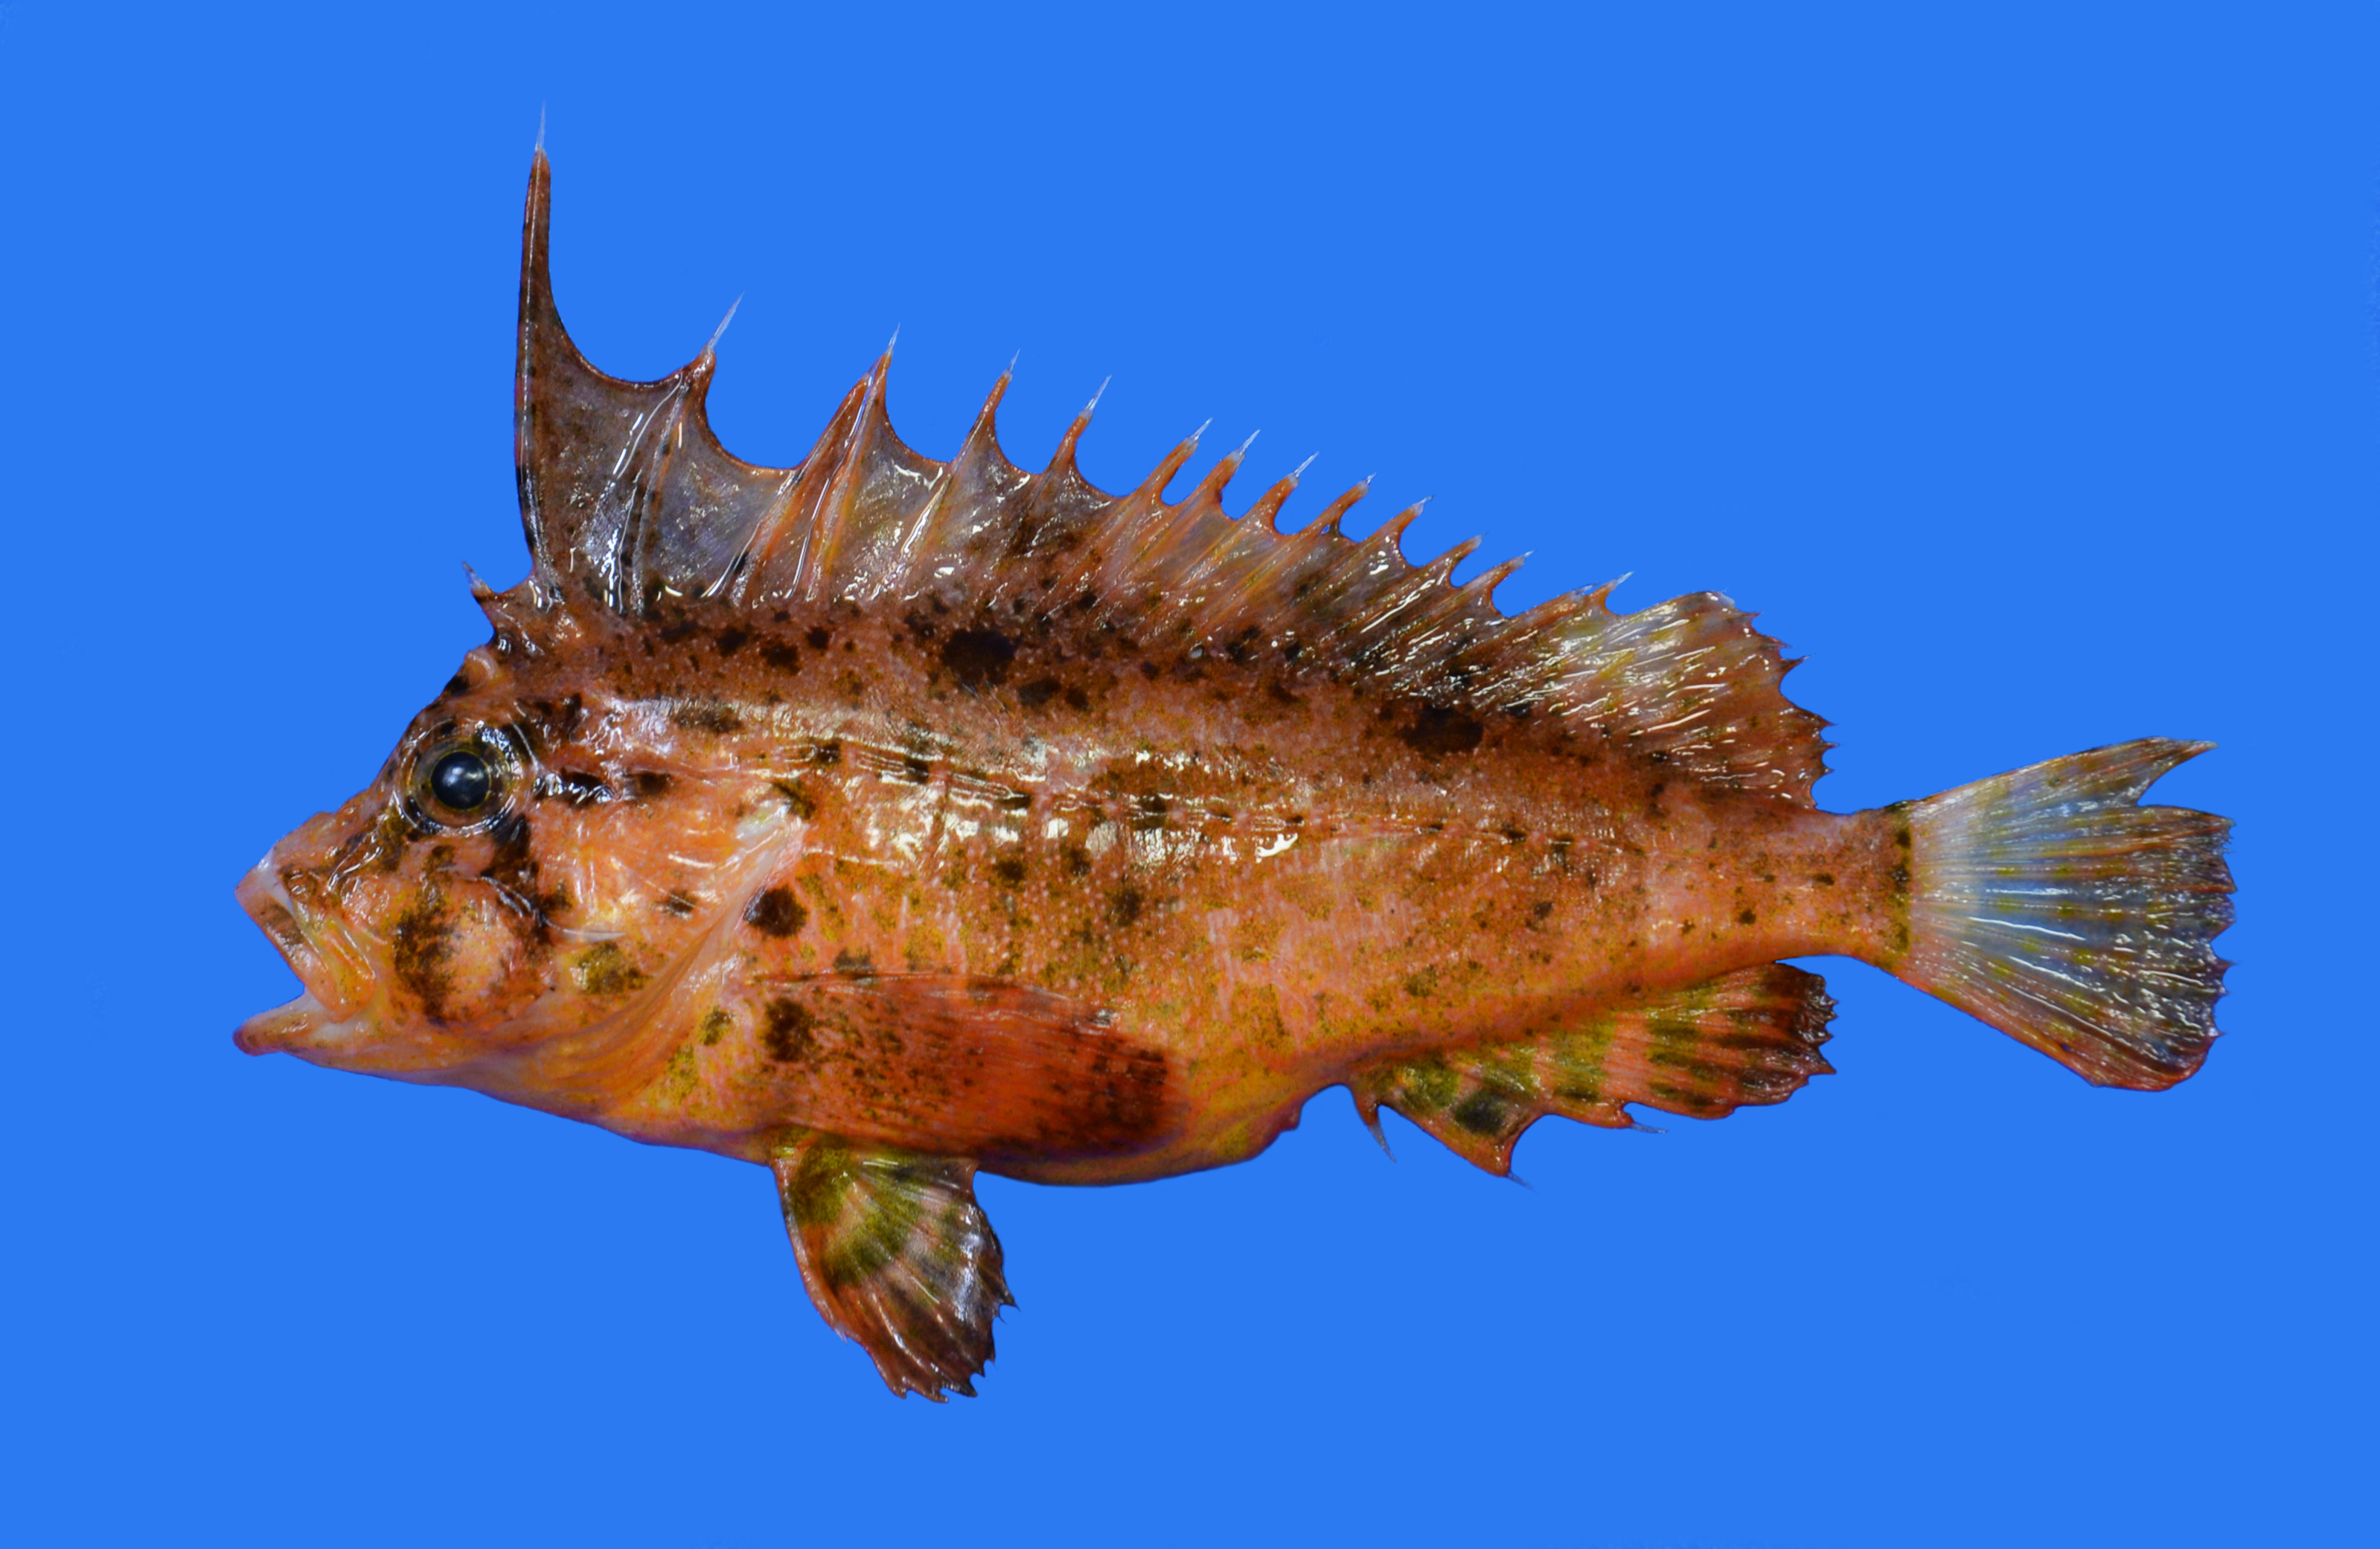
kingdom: Animalia
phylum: Chordata
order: Scorpaeniformes
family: Tetrarogidae
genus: Ocosia
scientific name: Ocosia
